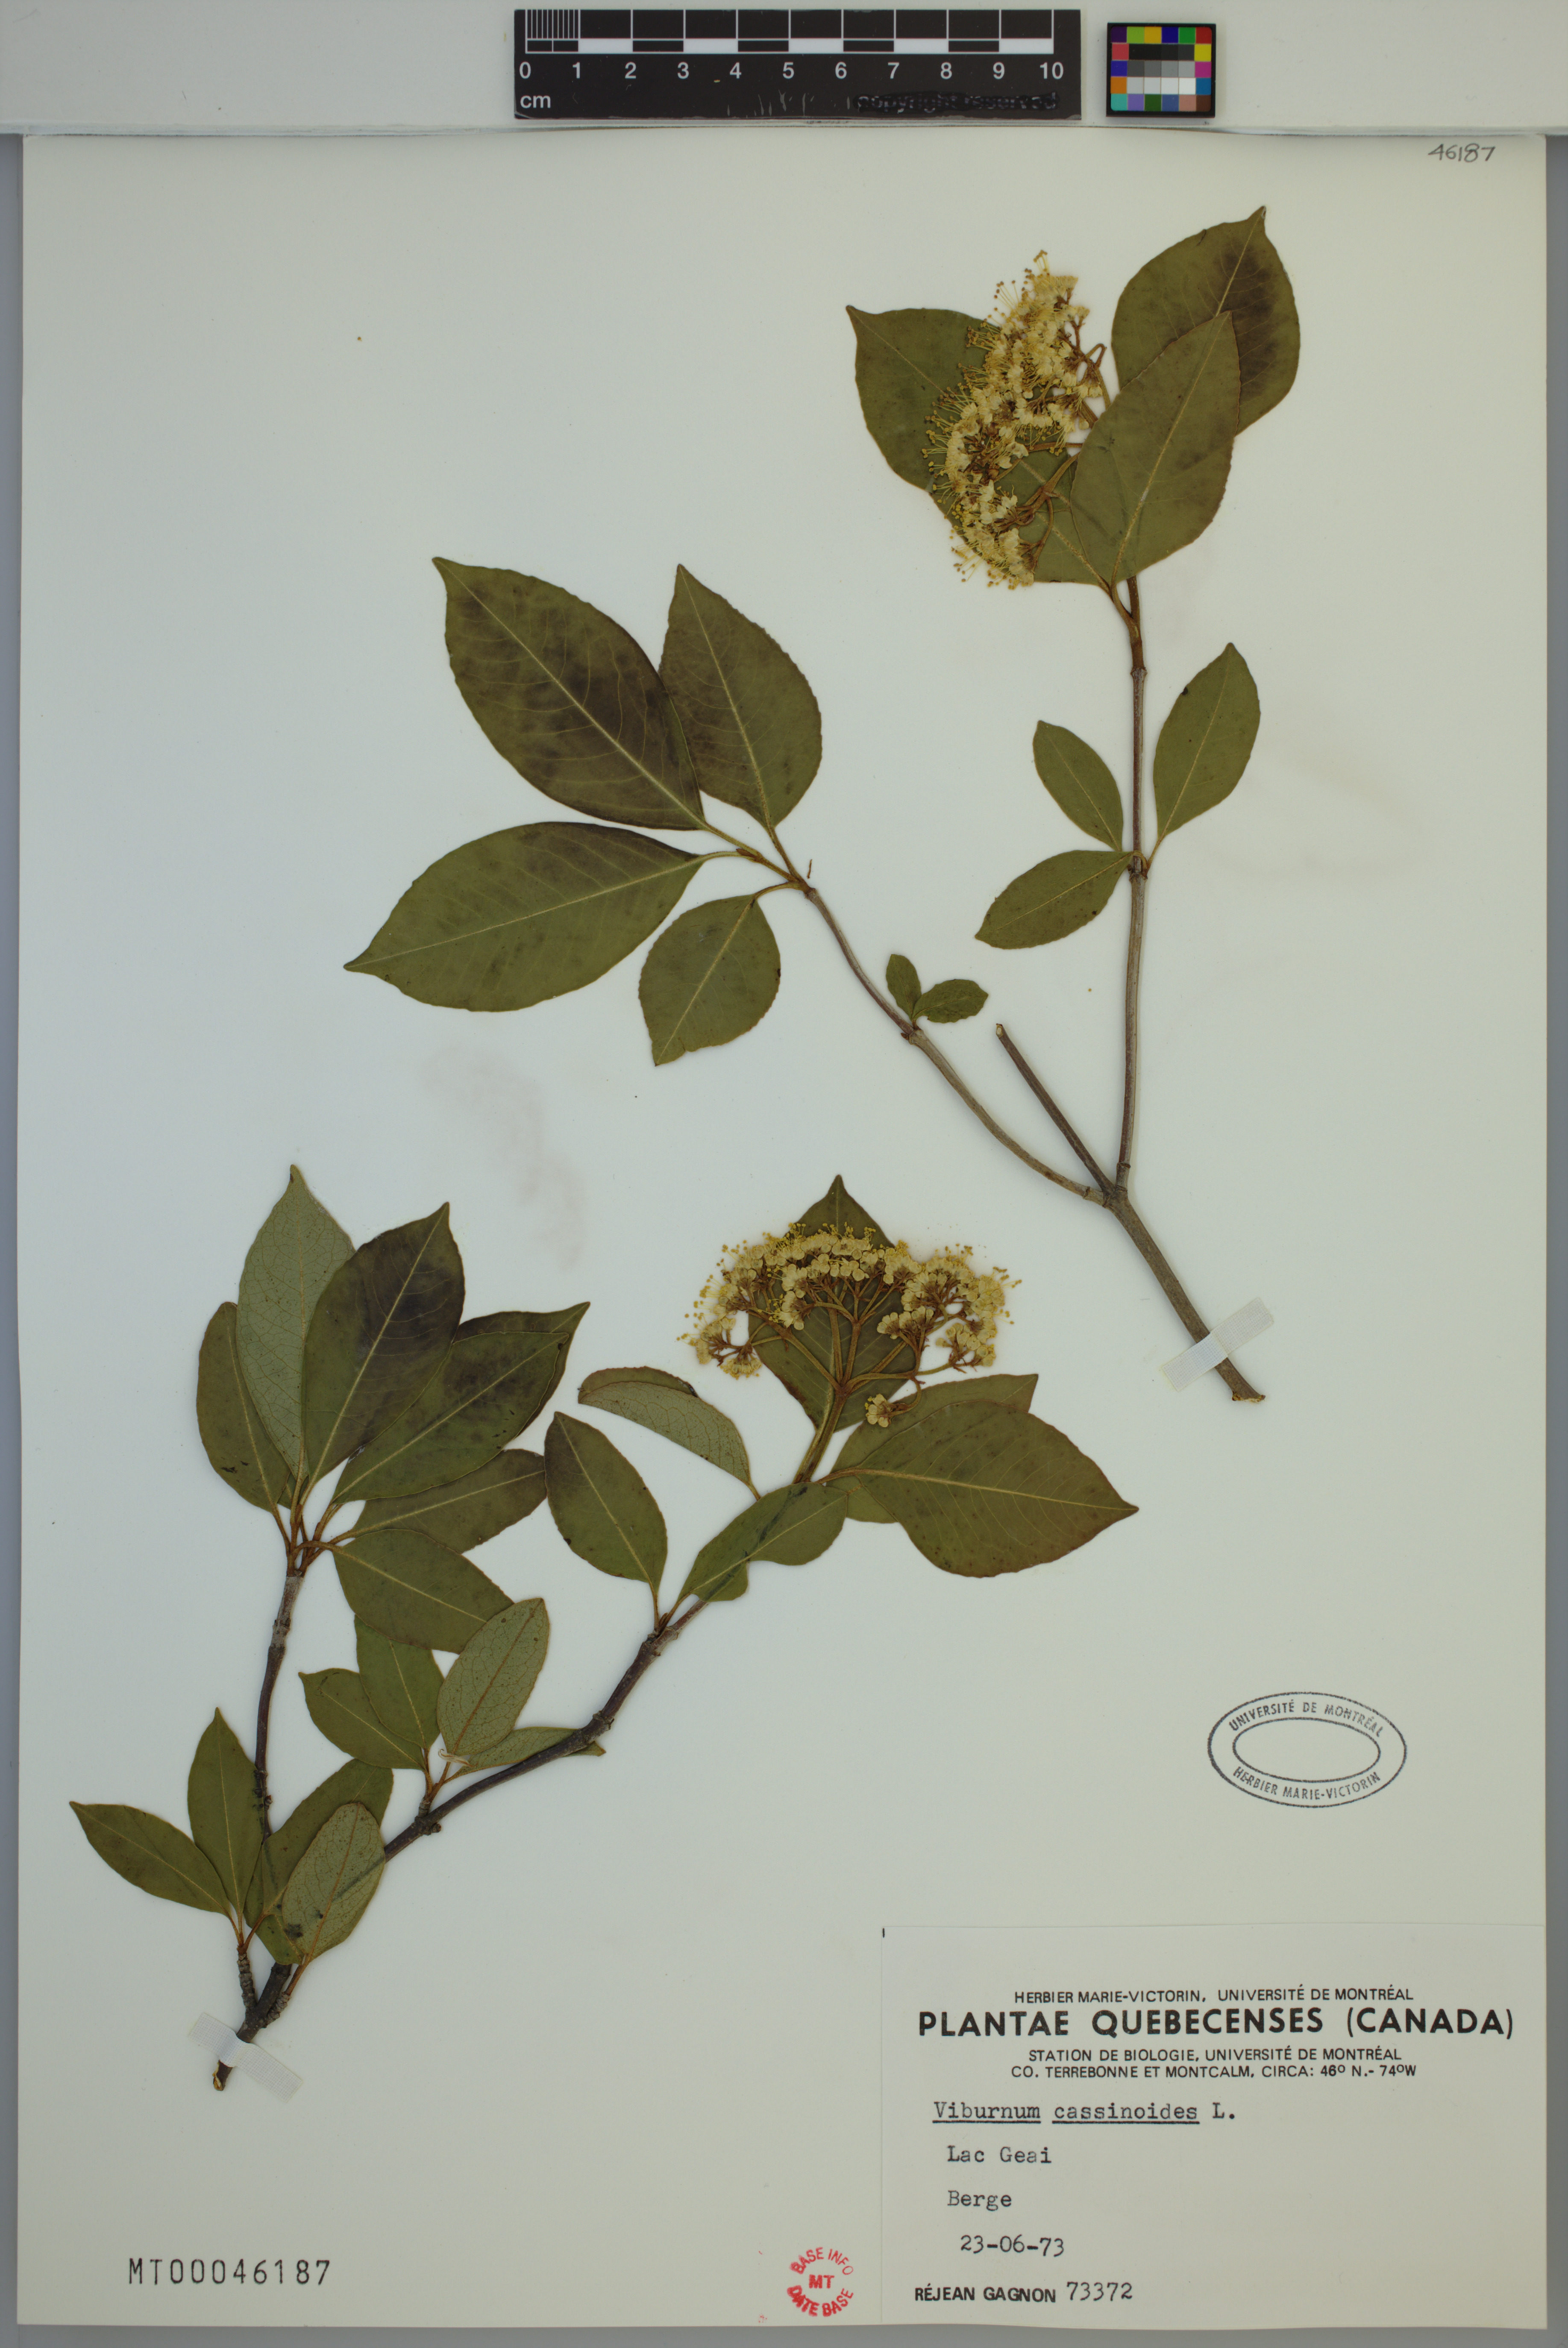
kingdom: Plantae
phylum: Tracheophyta
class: Magnoliopsida
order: Dipsacales
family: Viburnaceae
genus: Viburnum
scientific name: Viburnum cassinoides
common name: Swamp haw
